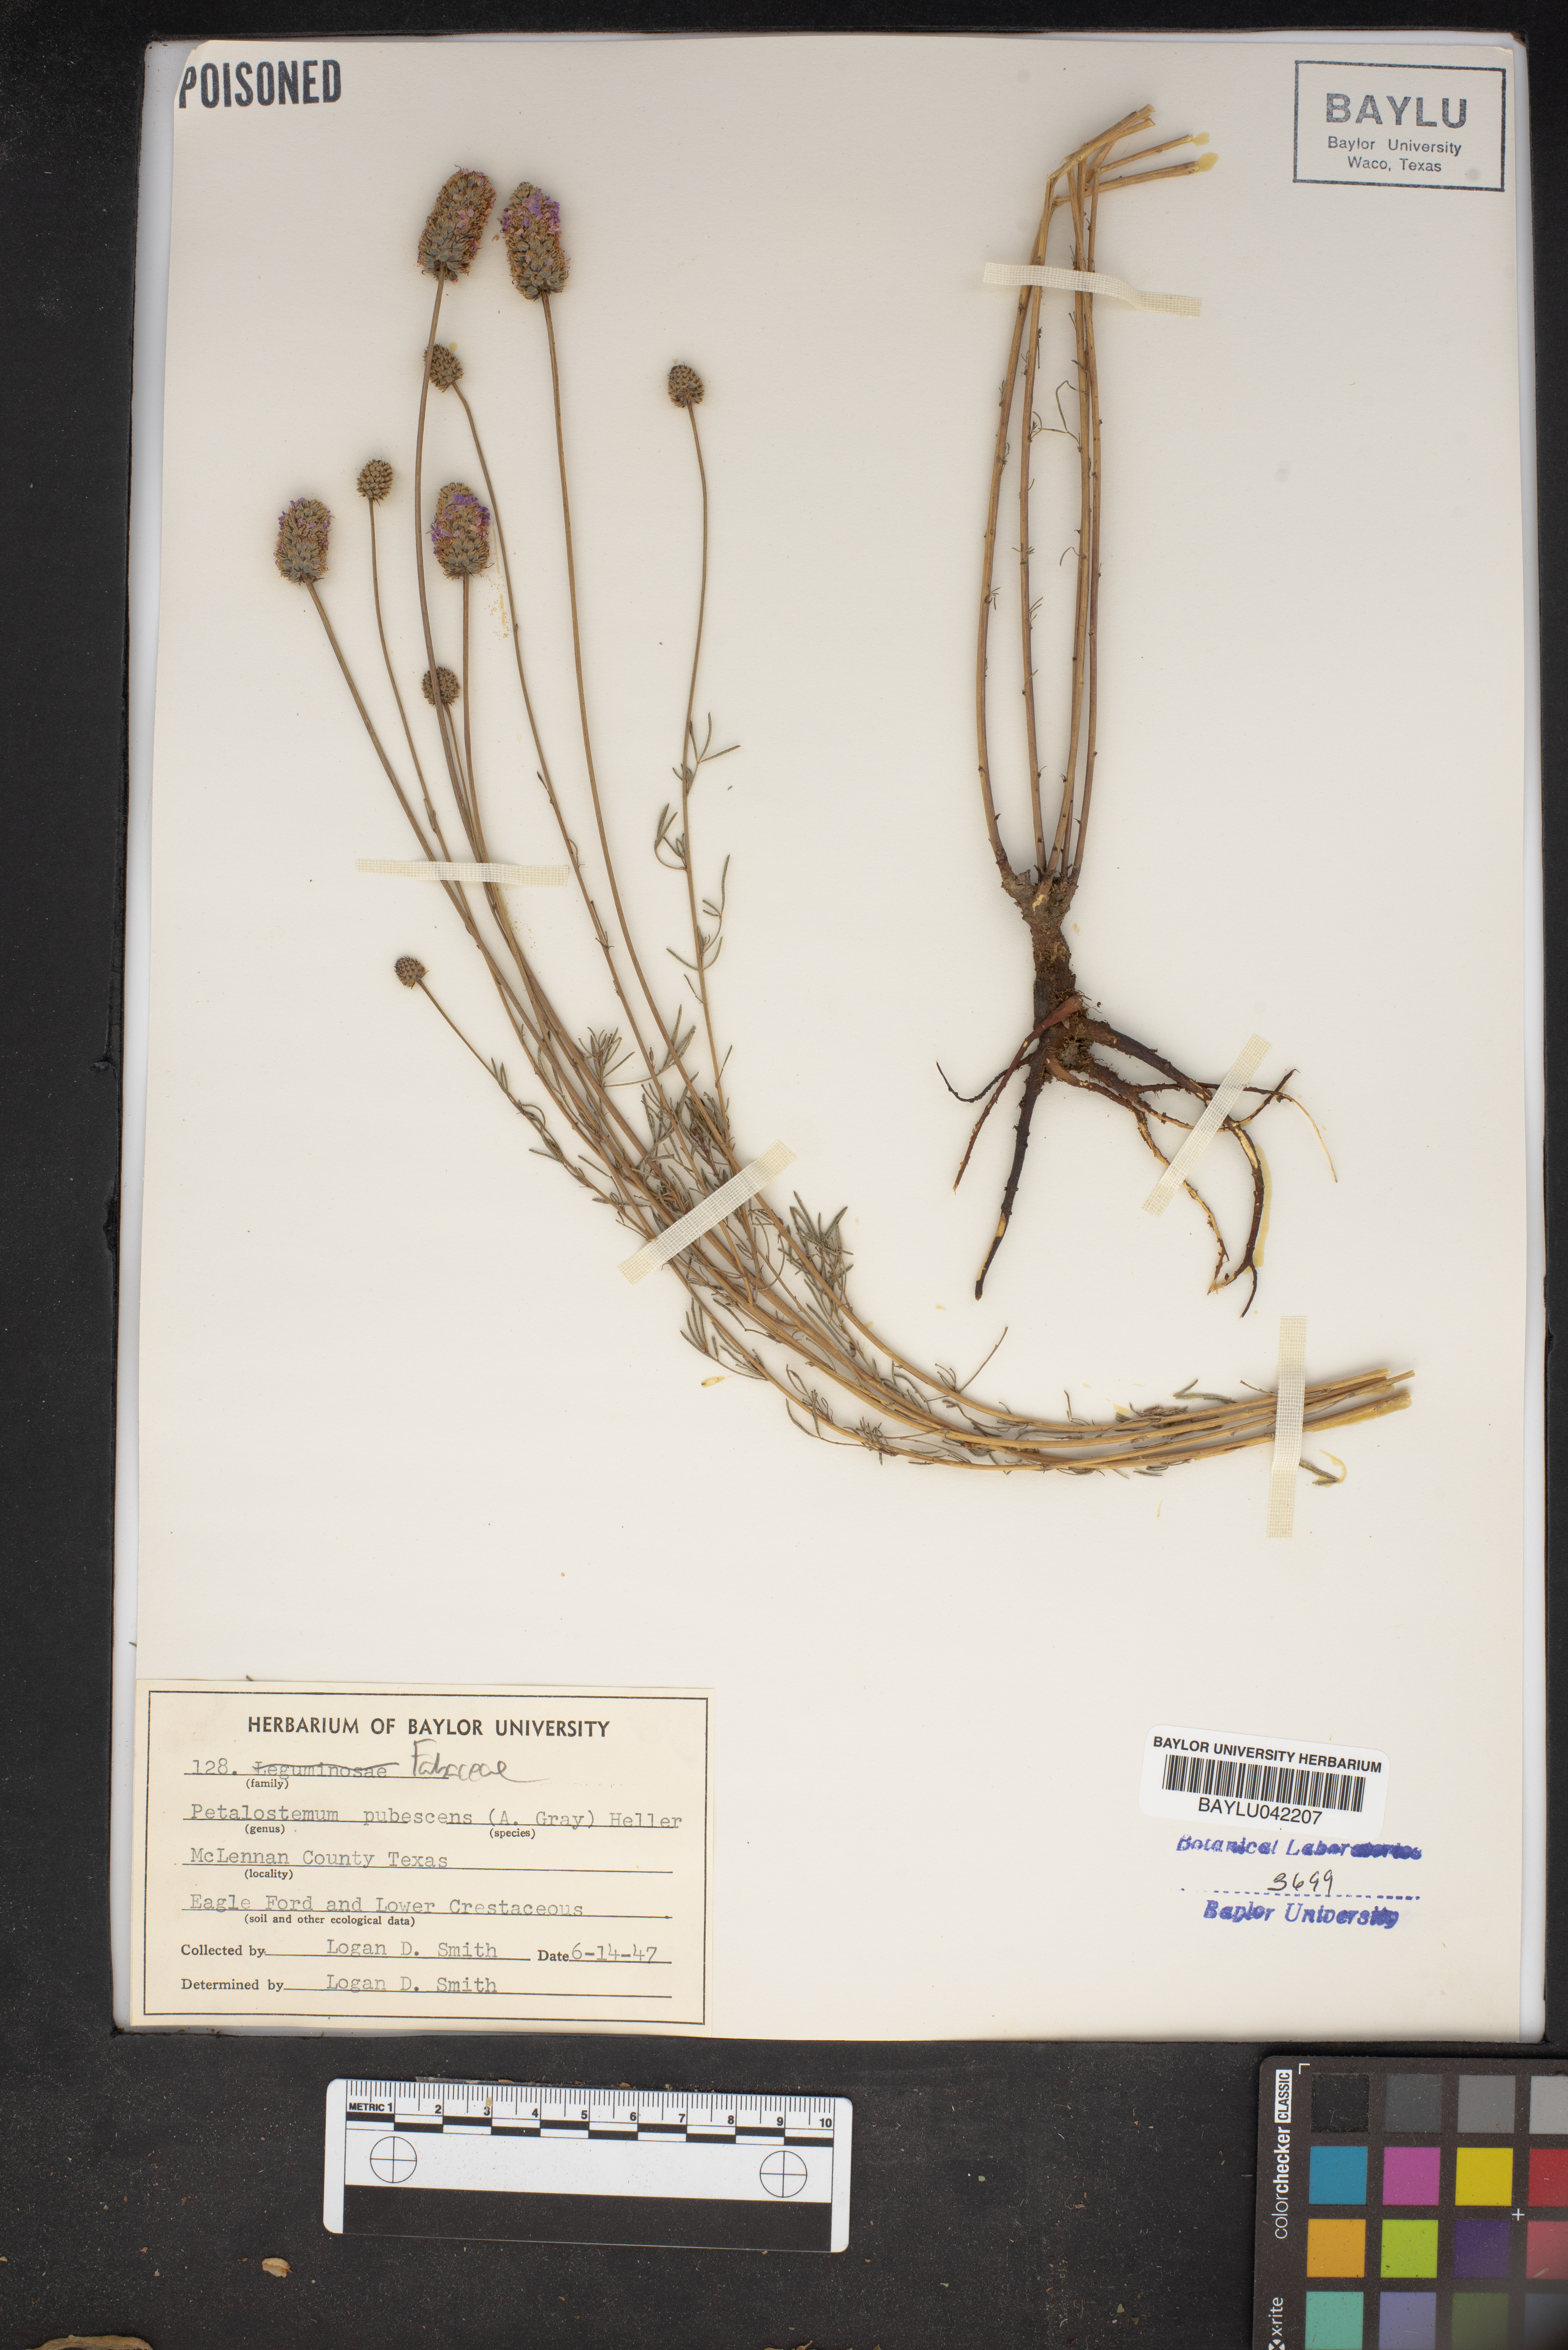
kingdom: Plantae
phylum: Tracheophyta
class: Magnoliopsida
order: Fabales
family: Fabaceae
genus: Dalea
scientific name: Dalea
